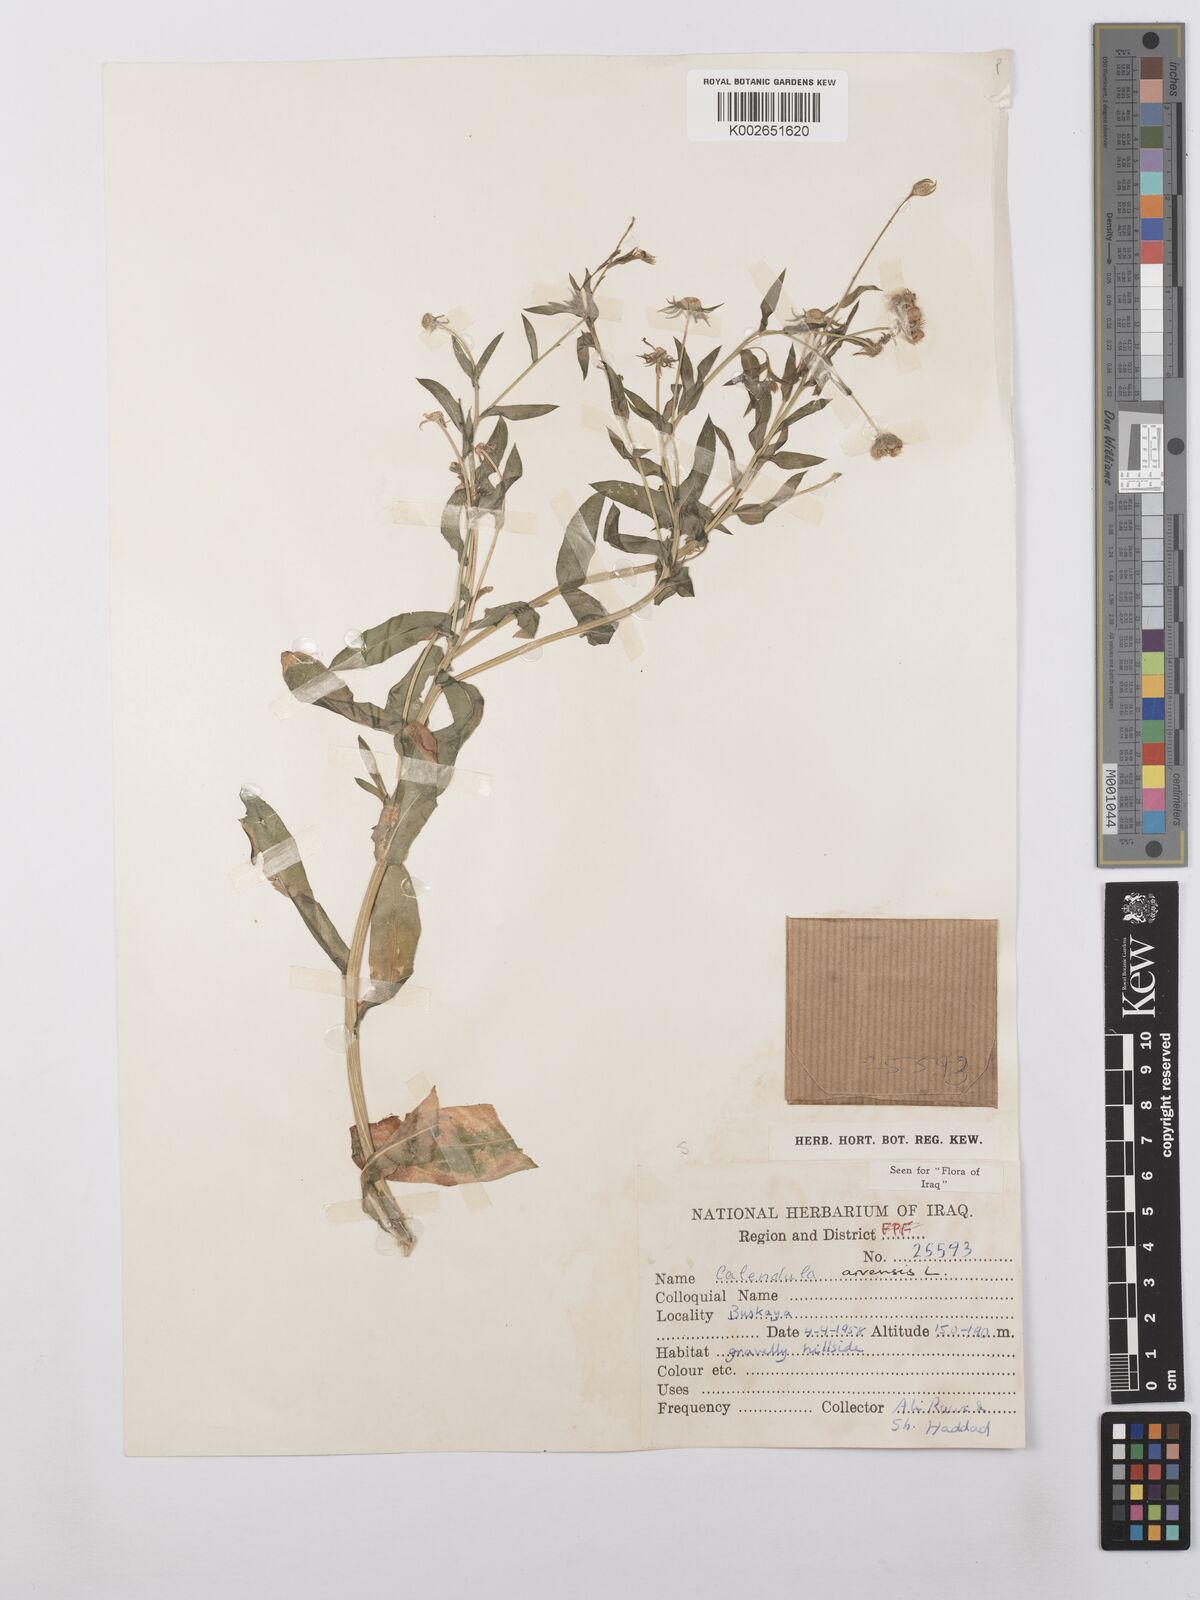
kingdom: Plantae
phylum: Tracheophyta
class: Magnoliopsida
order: Asterales
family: Asteraceae
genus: Calendula
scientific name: Calendula arvensis
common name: Field marigold
